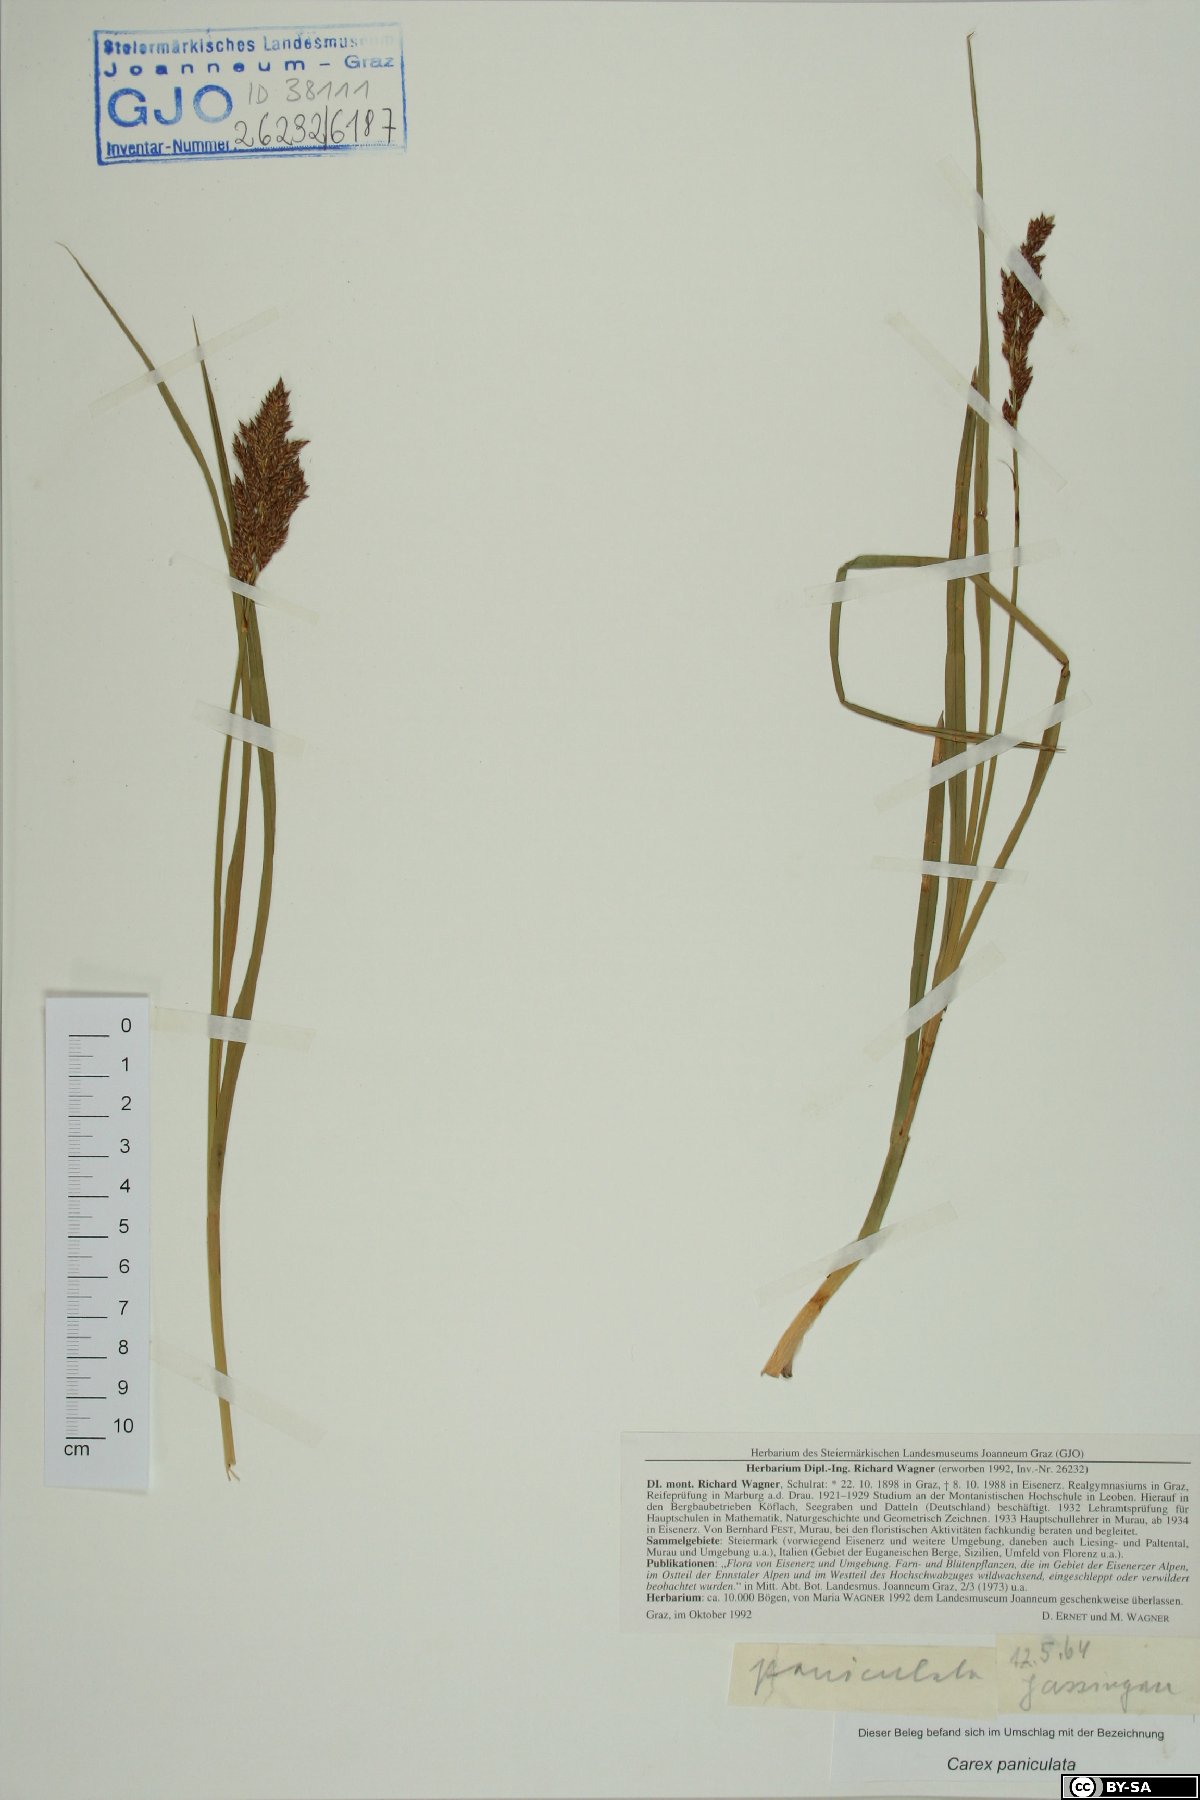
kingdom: Plantae
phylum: Tracheophyta
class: Liliopsida
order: Poales
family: Cyperaceae
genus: Carex
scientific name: Carex paniculata
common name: Greater tussock-sedge
